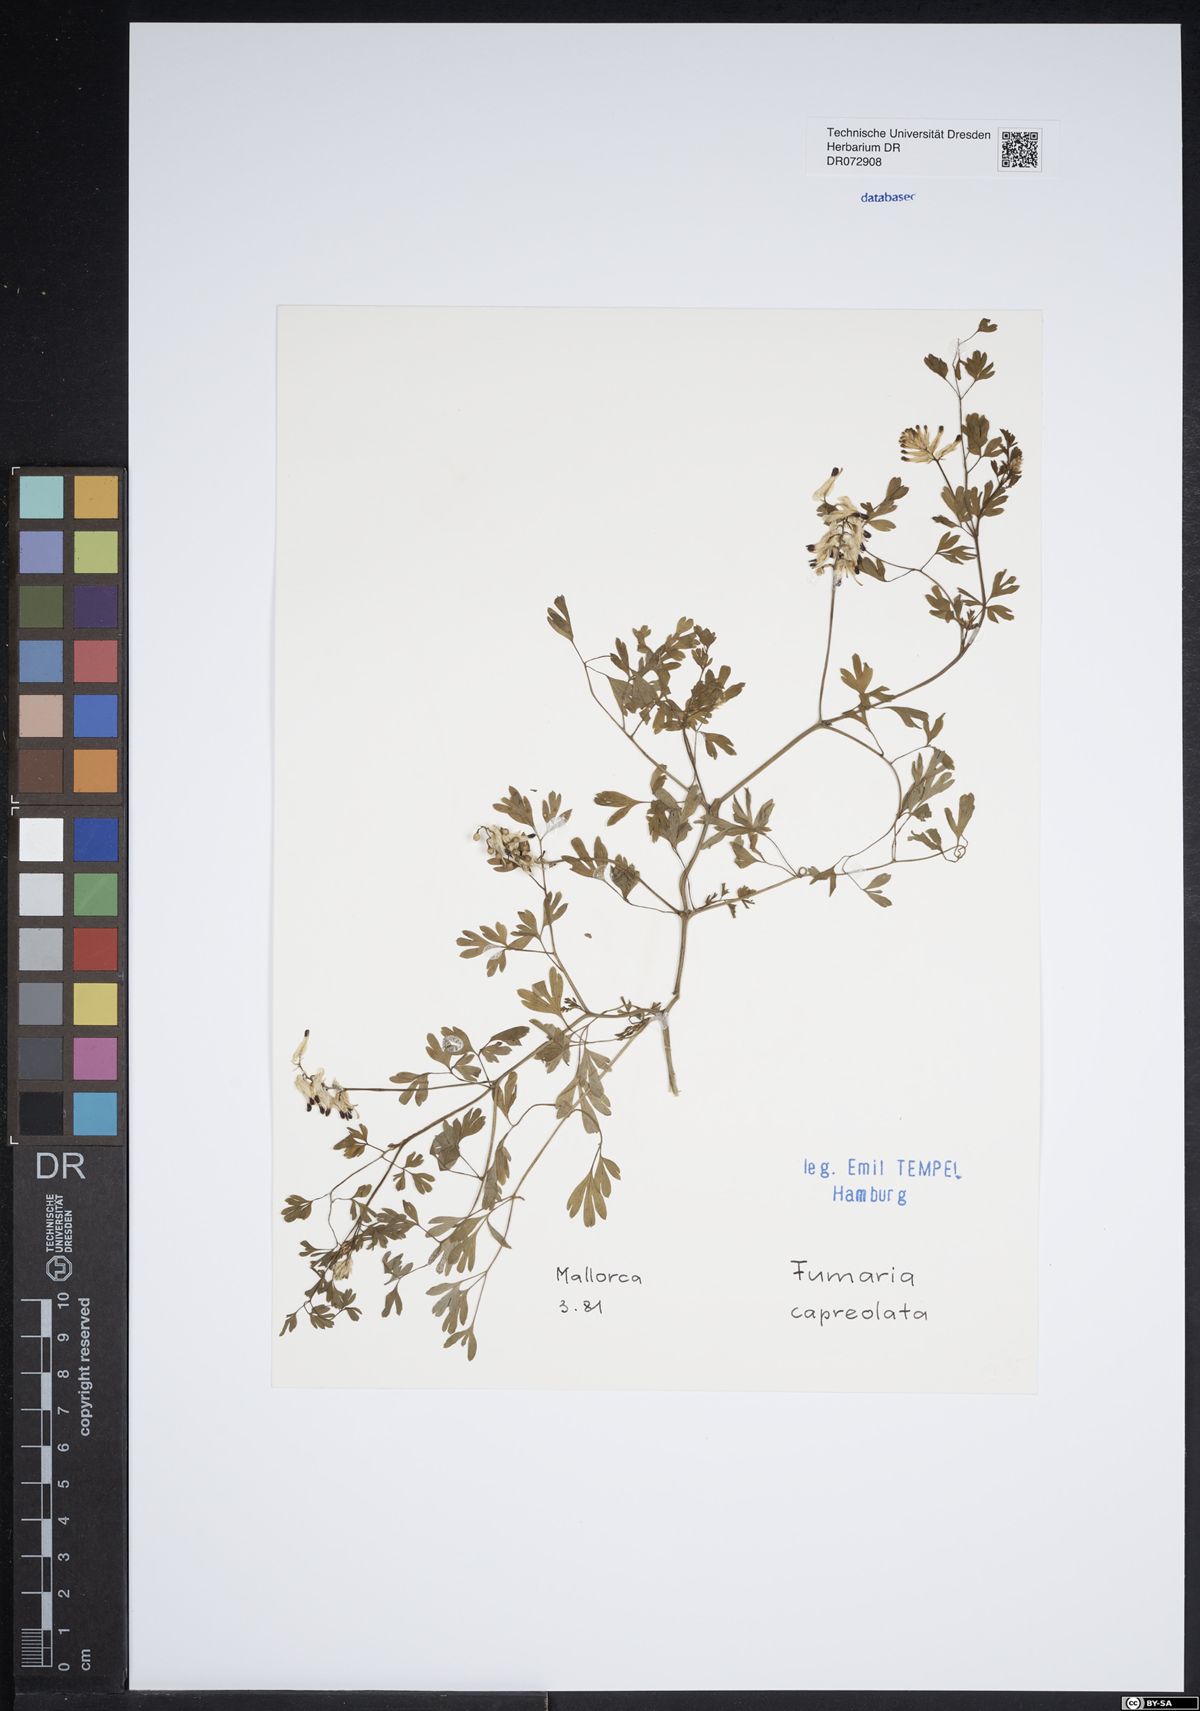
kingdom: Plantae
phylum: Tracheophyta
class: Magnoliopsida
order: Ranunculales
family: Papaveraceae
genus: Fumaria
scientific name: Fumaria capreolata
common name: White ramping-fumitory
